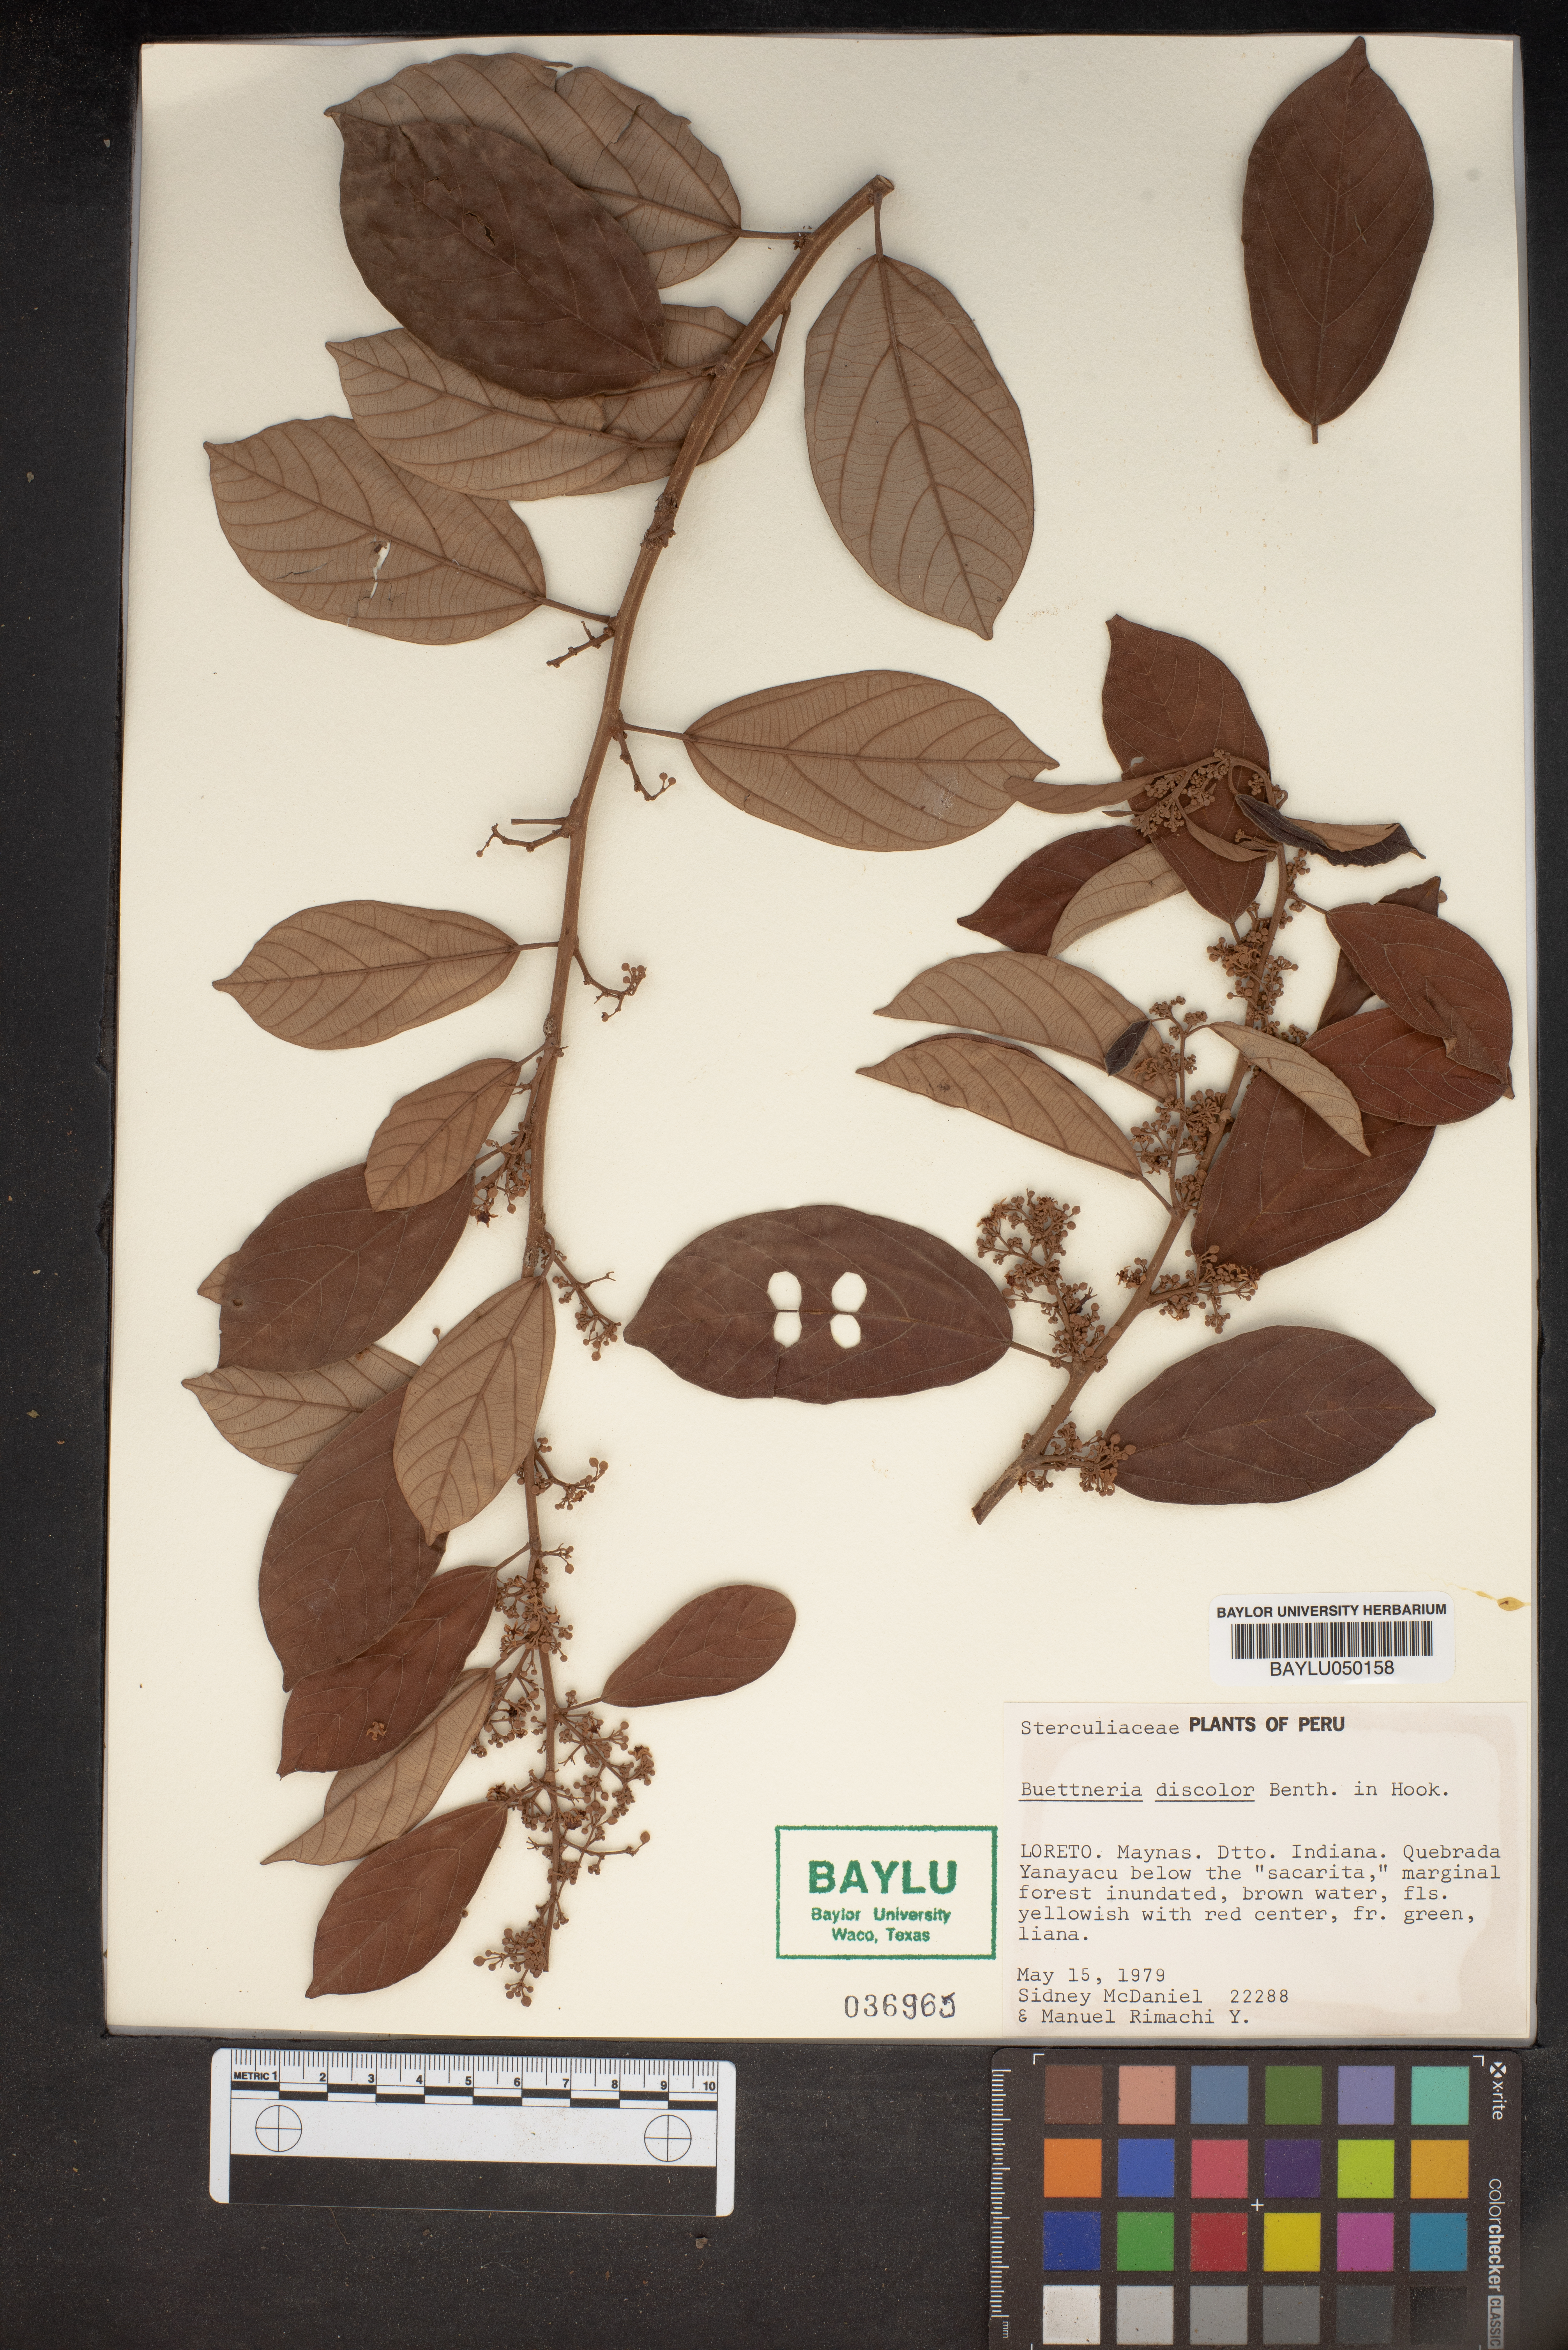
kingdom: Plantae
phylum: Tracheophyta
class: Magnoliopsida
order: Malvales
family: Malvaceae
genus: Byttneria
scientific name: Byttneria fulva
